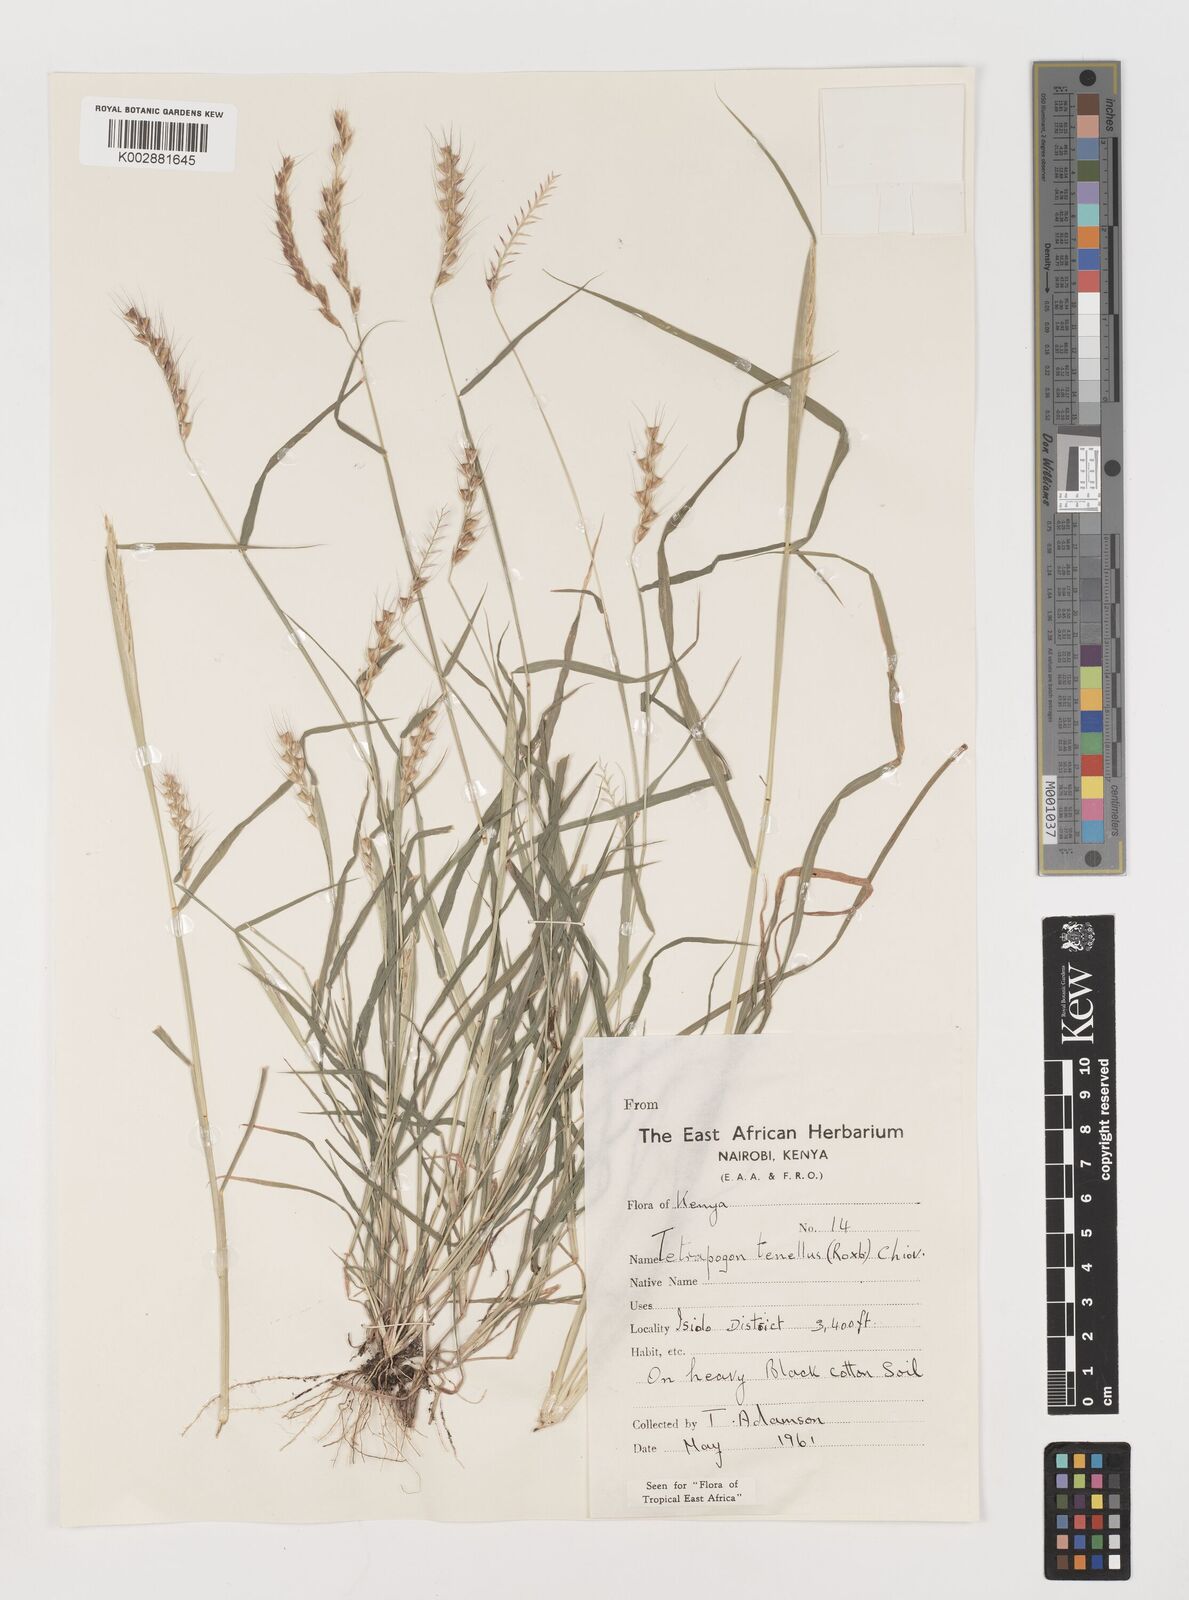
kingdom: Plantae
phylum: Tracheophyta
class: Liliopsida
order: Poales
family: Poaceae
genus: Tetrapogon
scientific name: Tetrapogon tenellus
